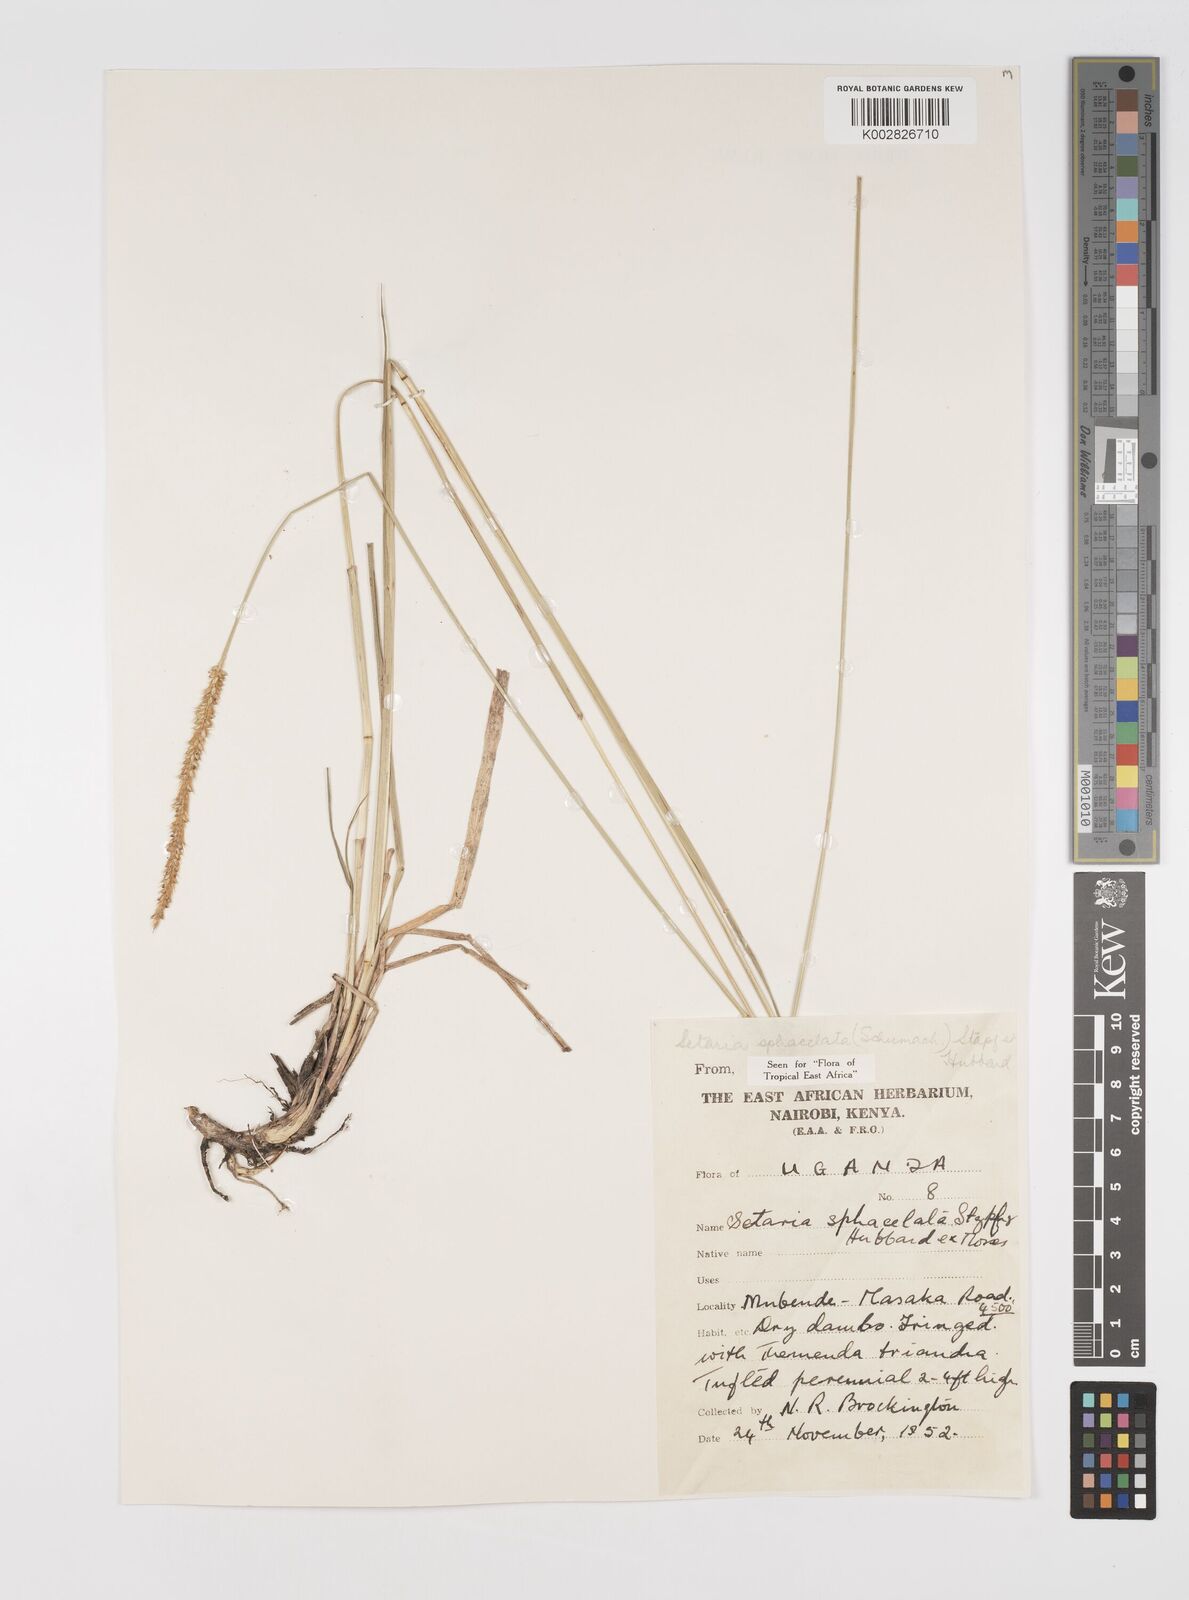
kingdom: Plantae
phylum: Tracheophyta
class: Liliopsida
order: Poales
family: Poaceae
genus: Setaria
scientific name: Setaria sphacelata
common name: African bristlegrass
